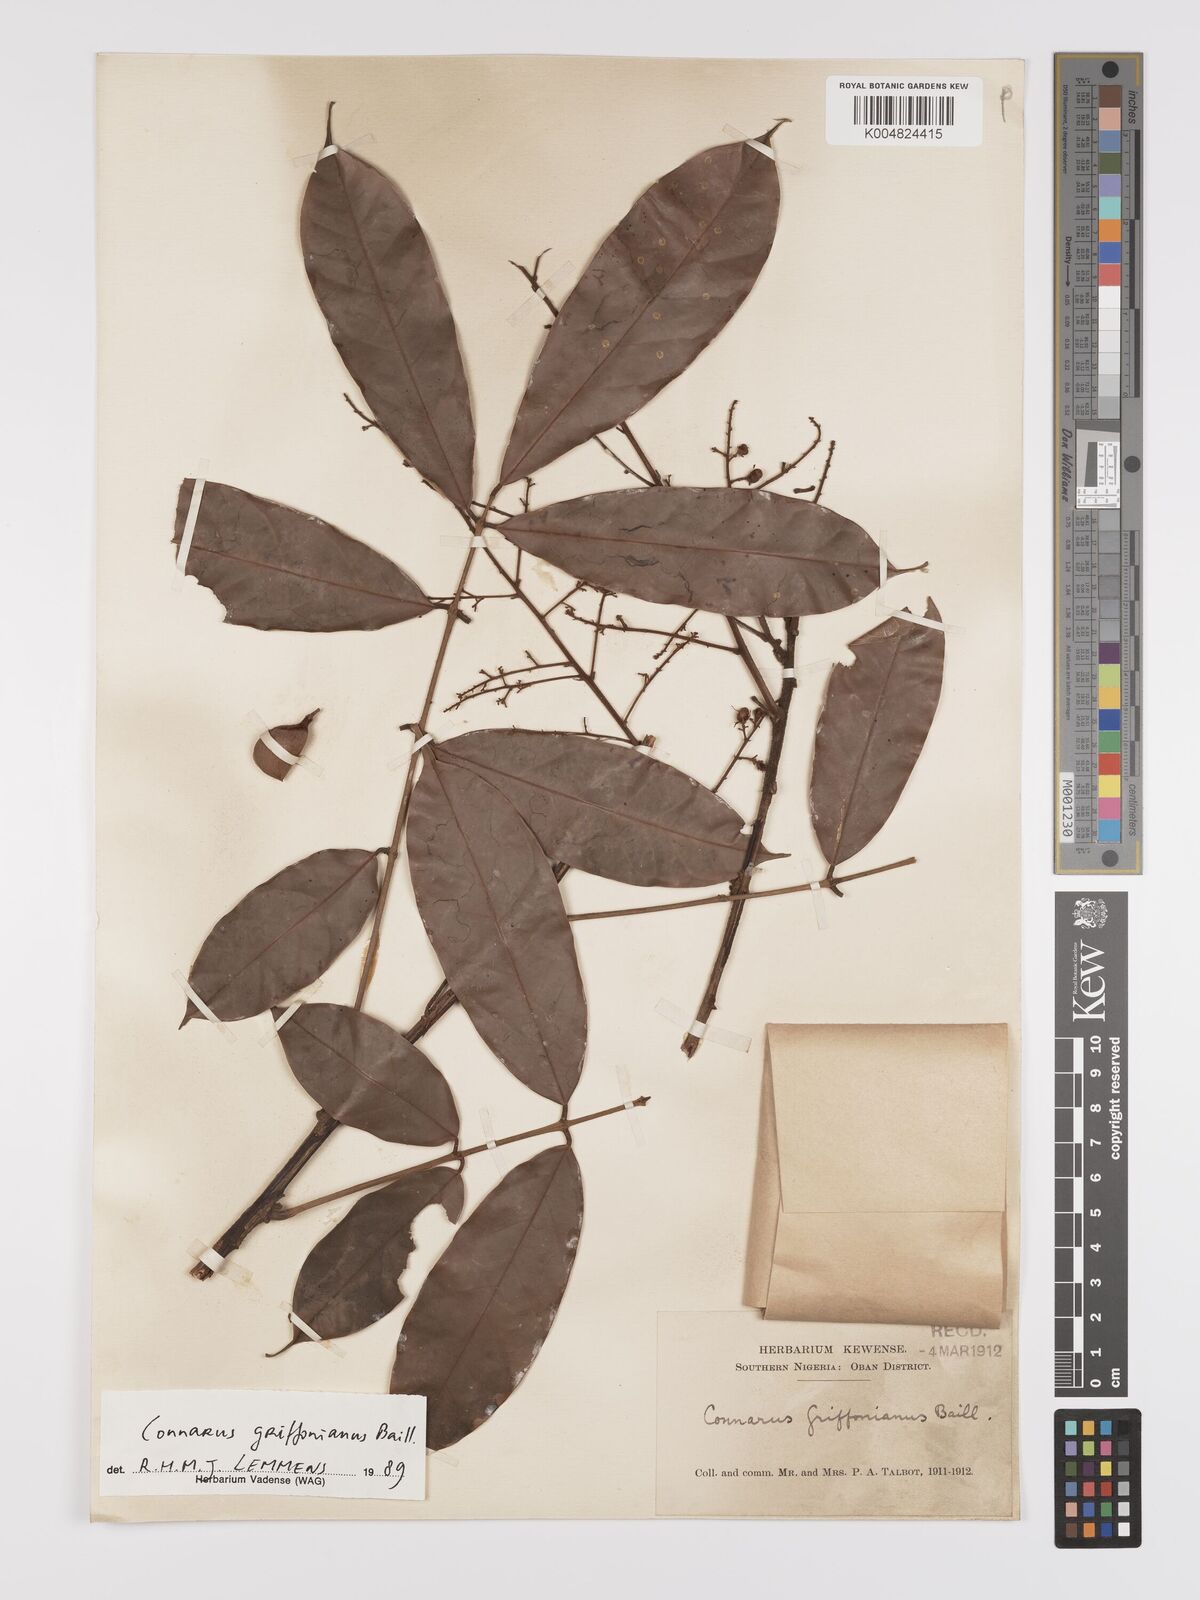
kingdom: Plantae
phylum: Tracheophyta
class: Magnoliopsida
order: Oxalidales
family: Connaraceae
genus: Connarus
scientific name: Connarus griffonianus
